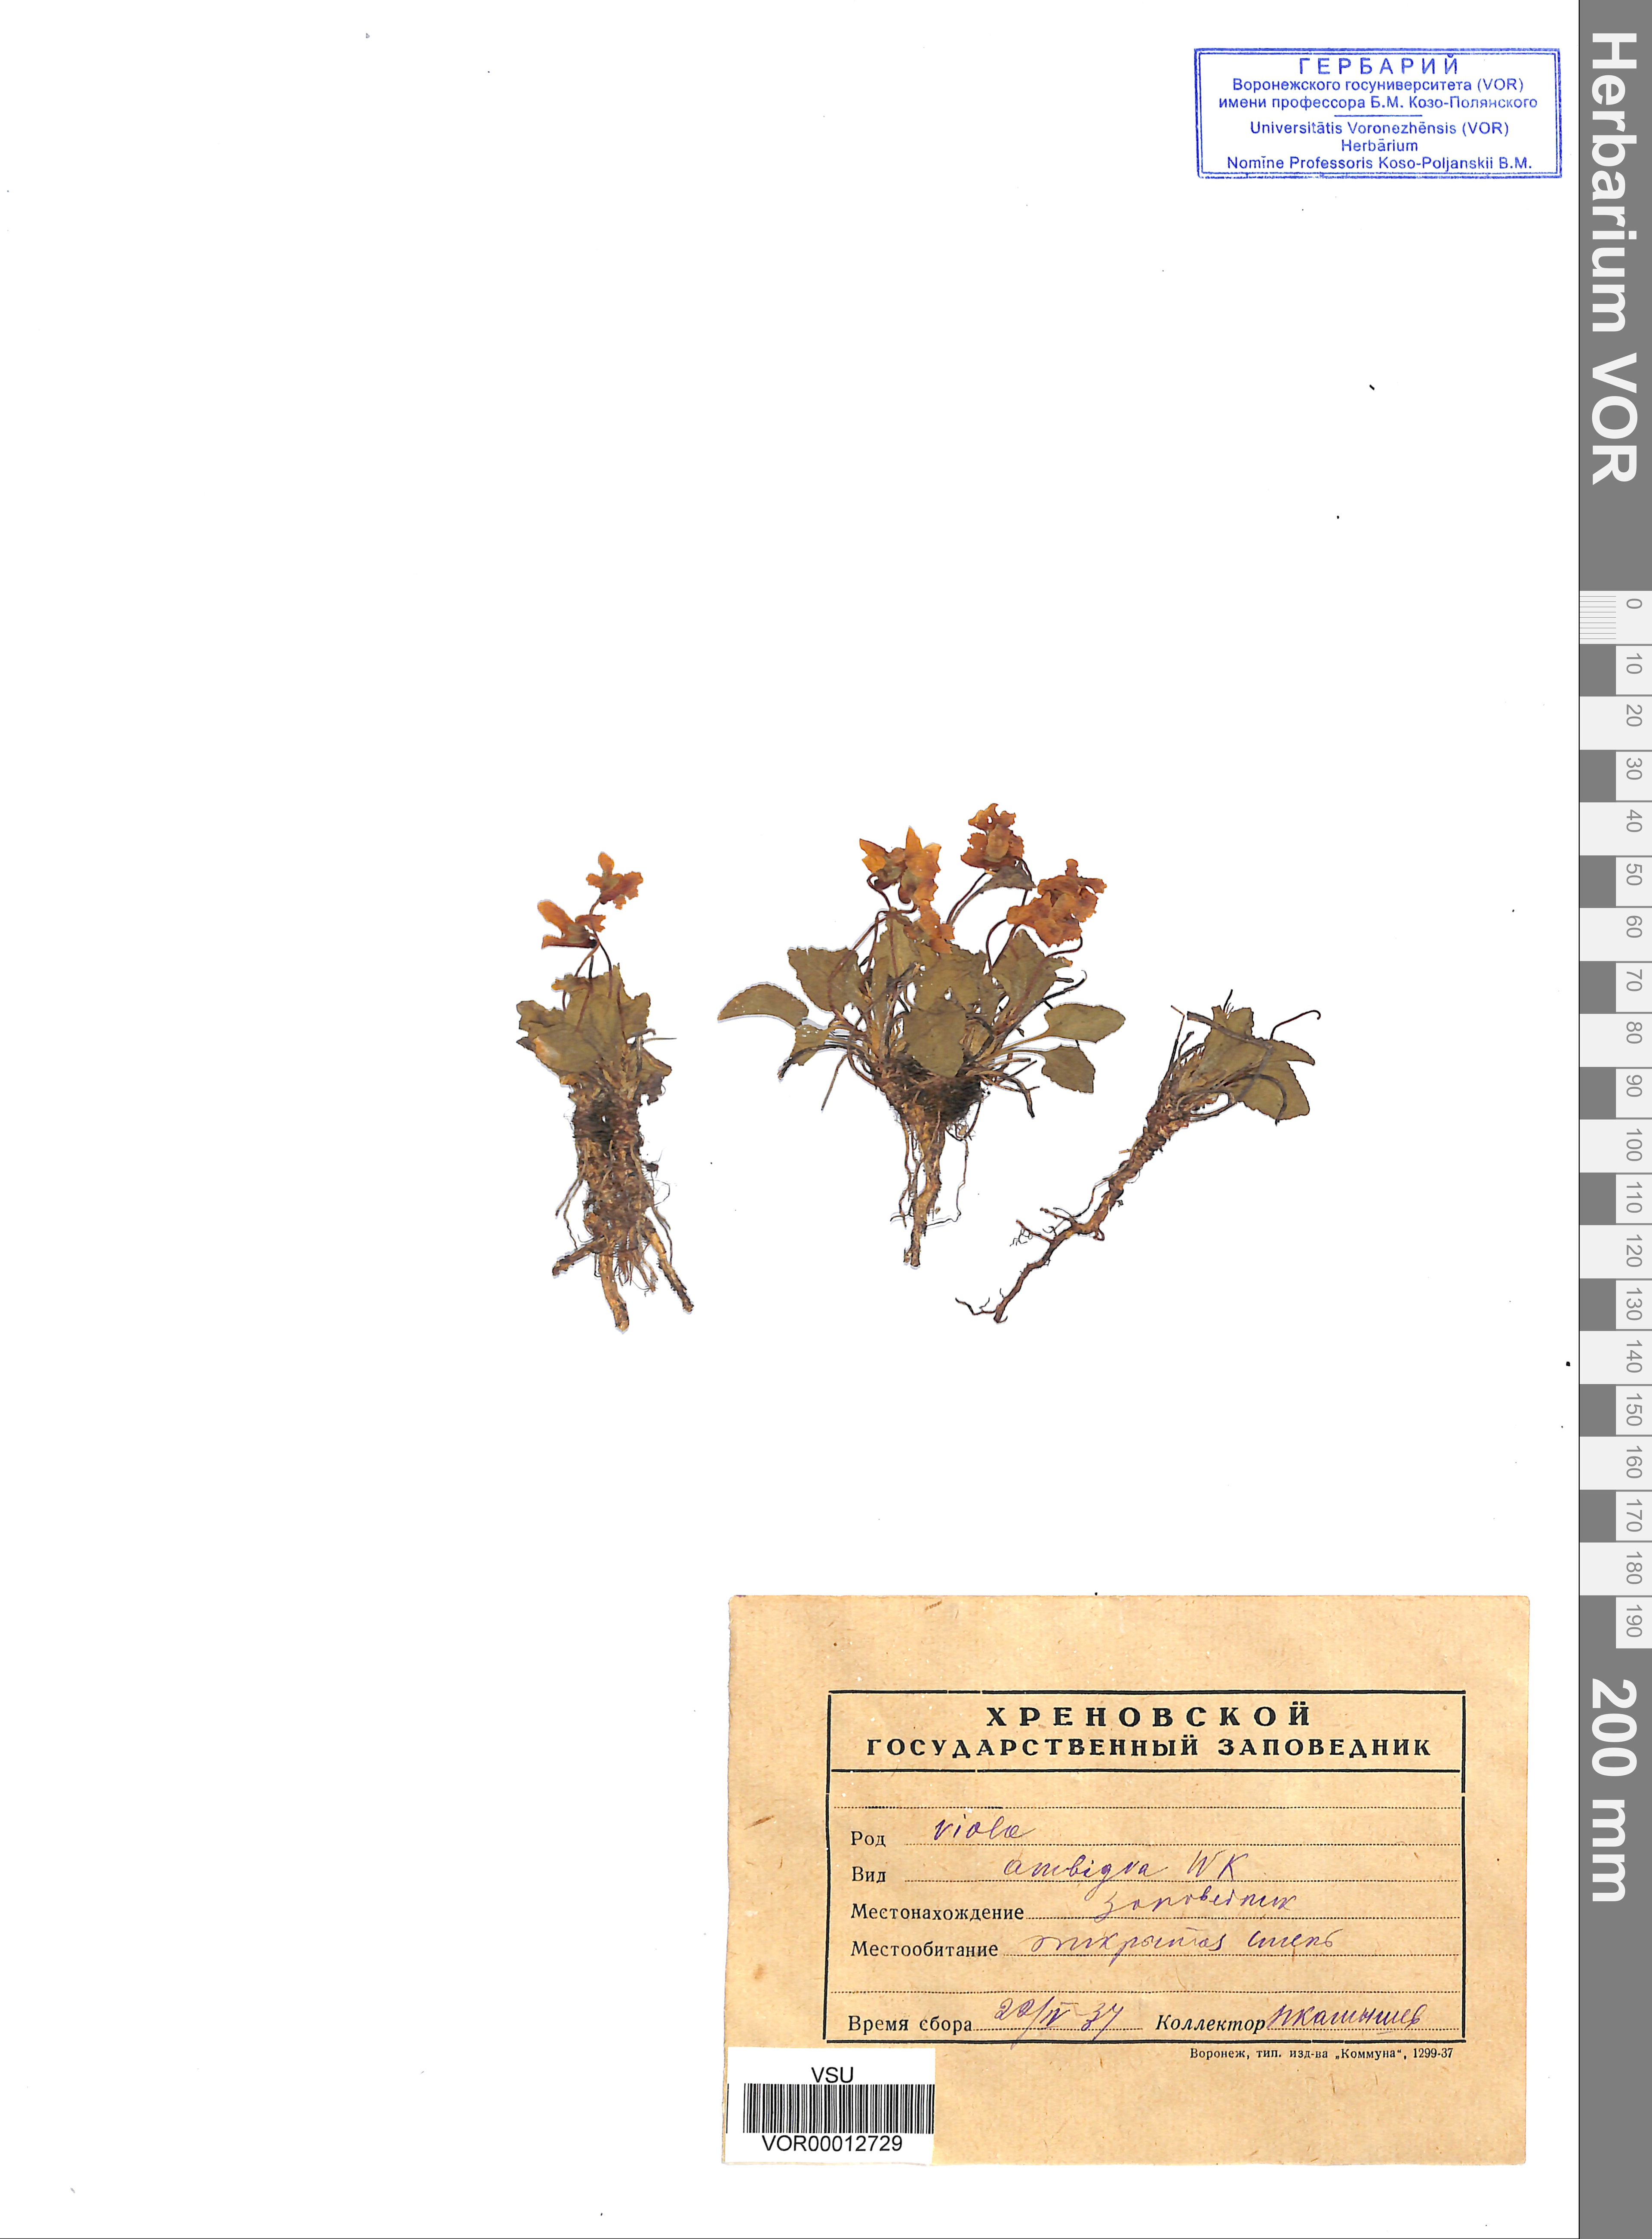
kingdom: Plantae
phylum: Tracheophyta
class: Magnoliopsida
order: Malpighiales
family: Violaceae
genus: Viola
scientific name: Viola ambigua
